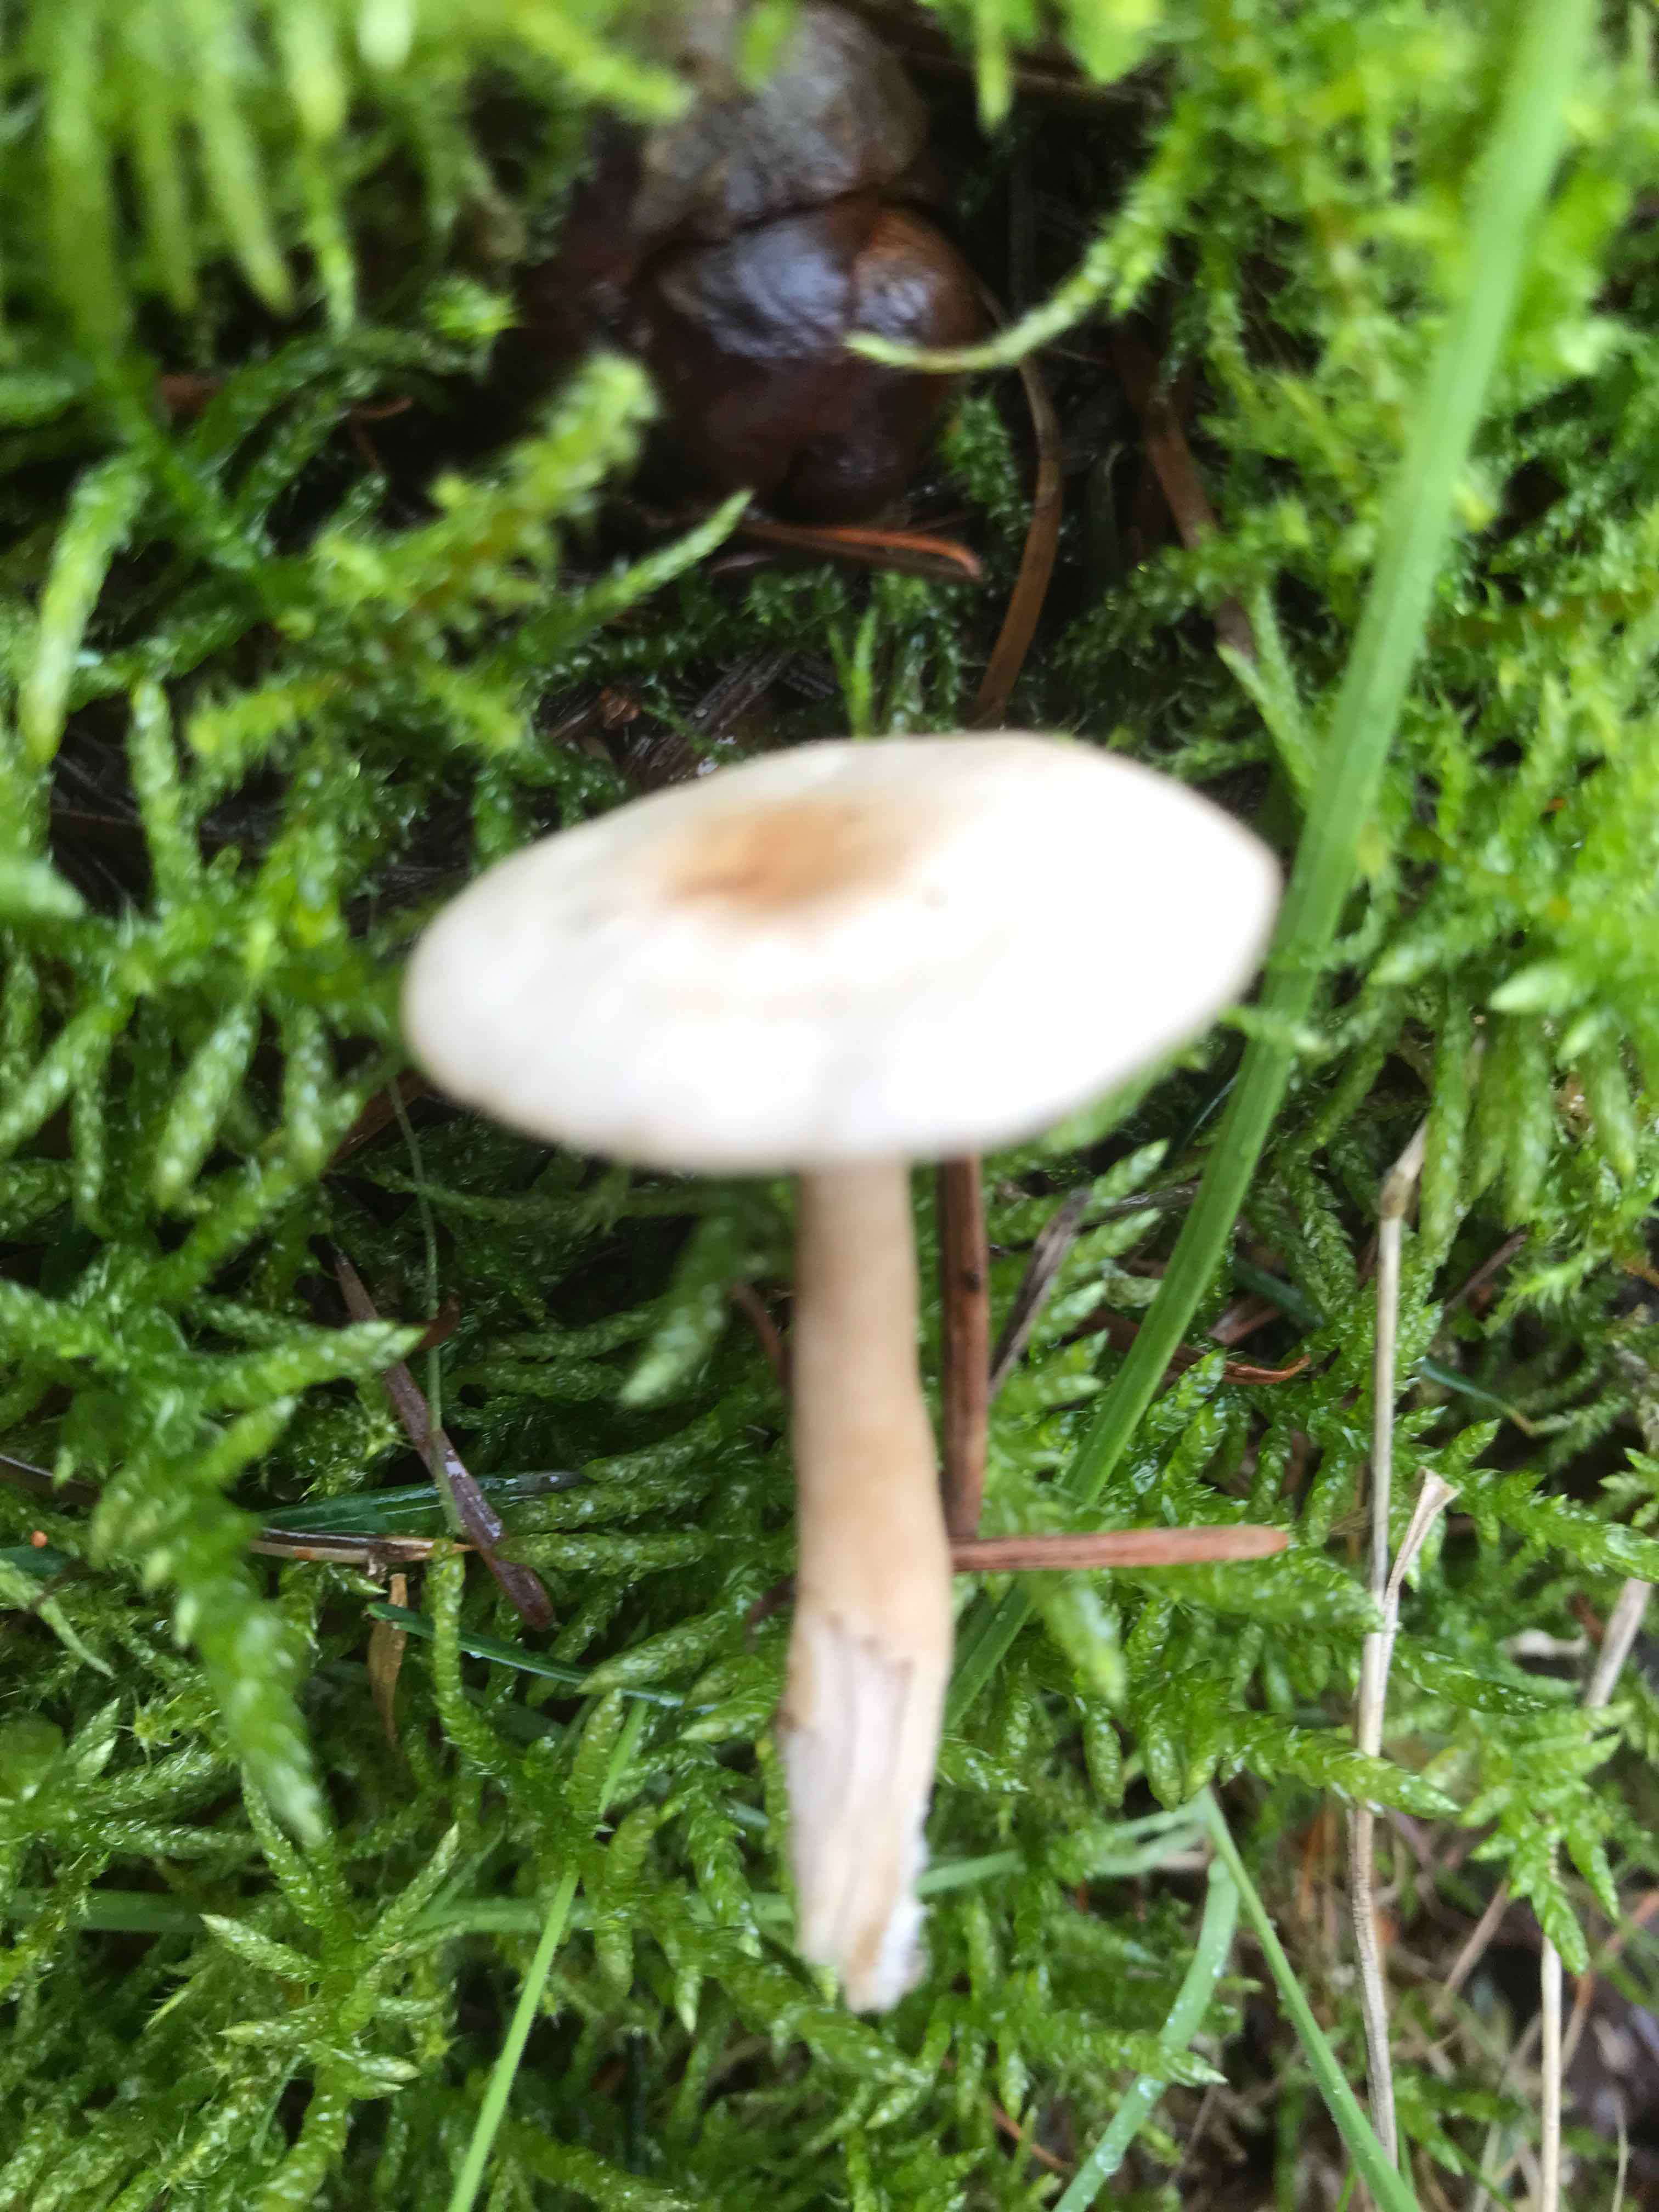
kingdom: Fungi
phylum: Basidiomycota
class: Agaricomycetes
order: Agaricales
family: Tricholomataceae
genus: Clitocybe
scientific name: Clitocybe fragrans
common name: vellugtende tragthat
